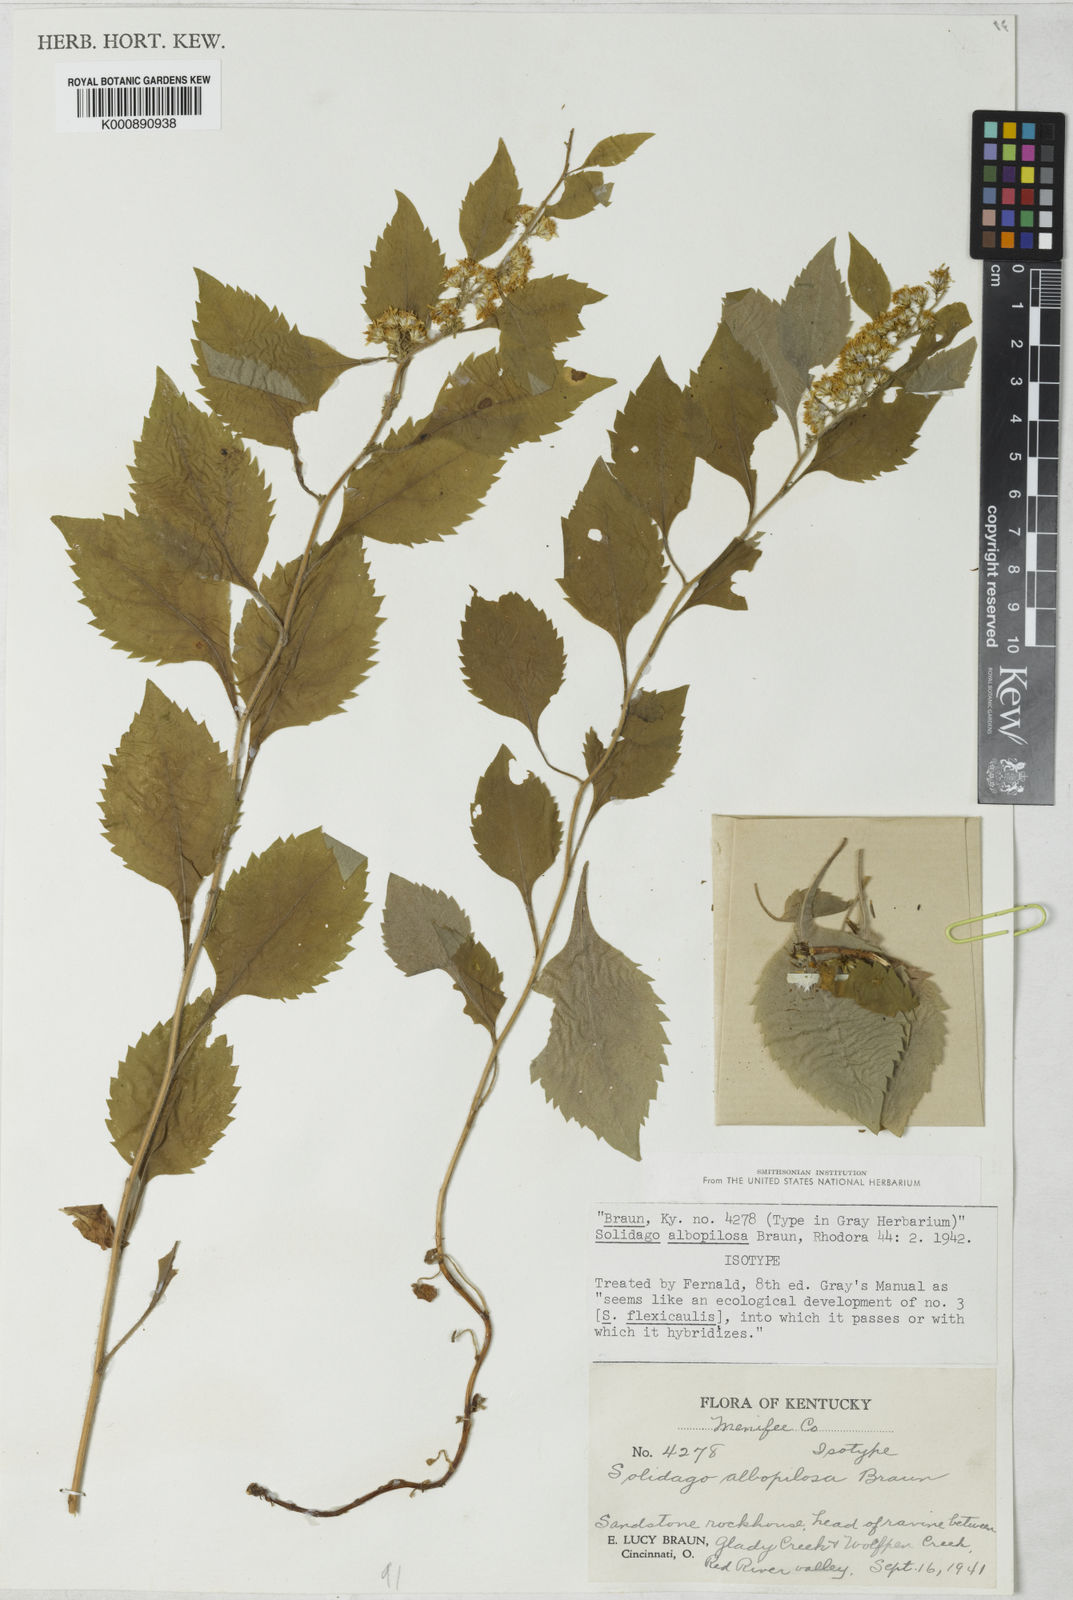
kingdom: Plantae
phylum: Tracheophyta
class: Magnoliopsida
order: Asterales
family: Asteraceae
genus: Solidago
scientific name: Solidago albopilosa
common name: White-hair goldenrod
